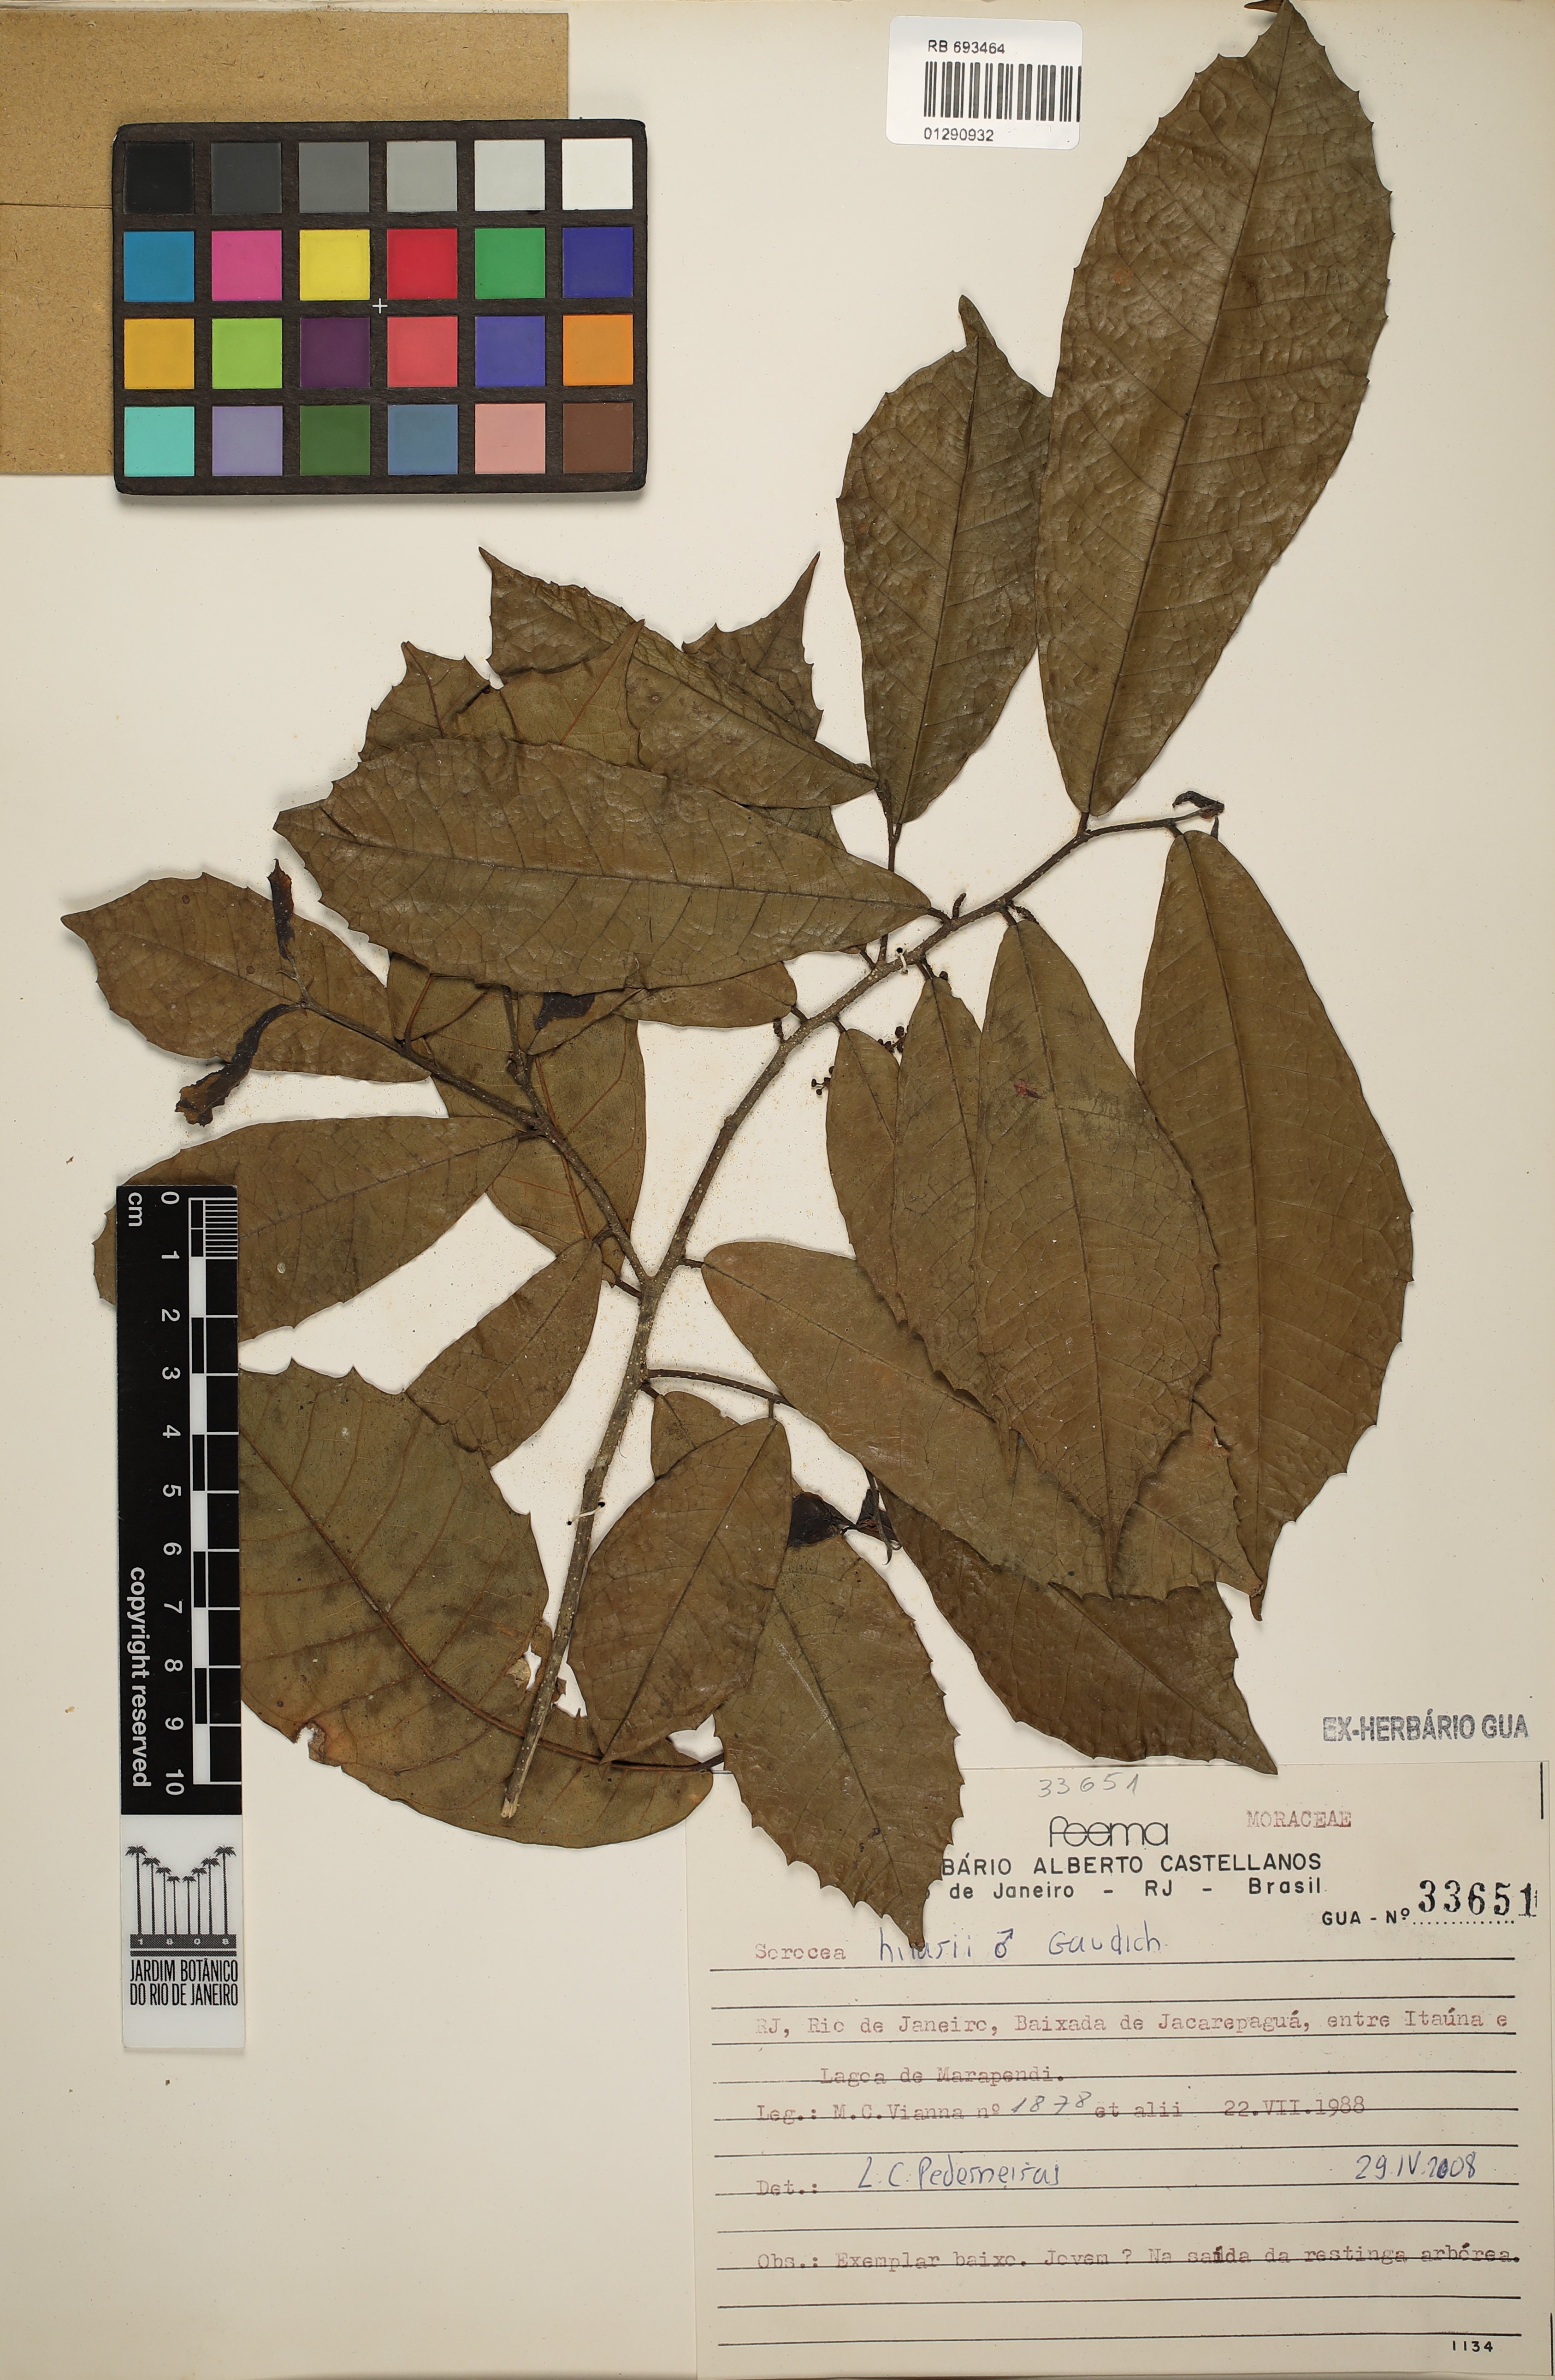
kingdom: Plantae
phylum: Tracheophyta
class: Magnoliopsida
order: Rosales
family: Moraceae
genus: Sorocea
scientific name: Sorocea hilarii
